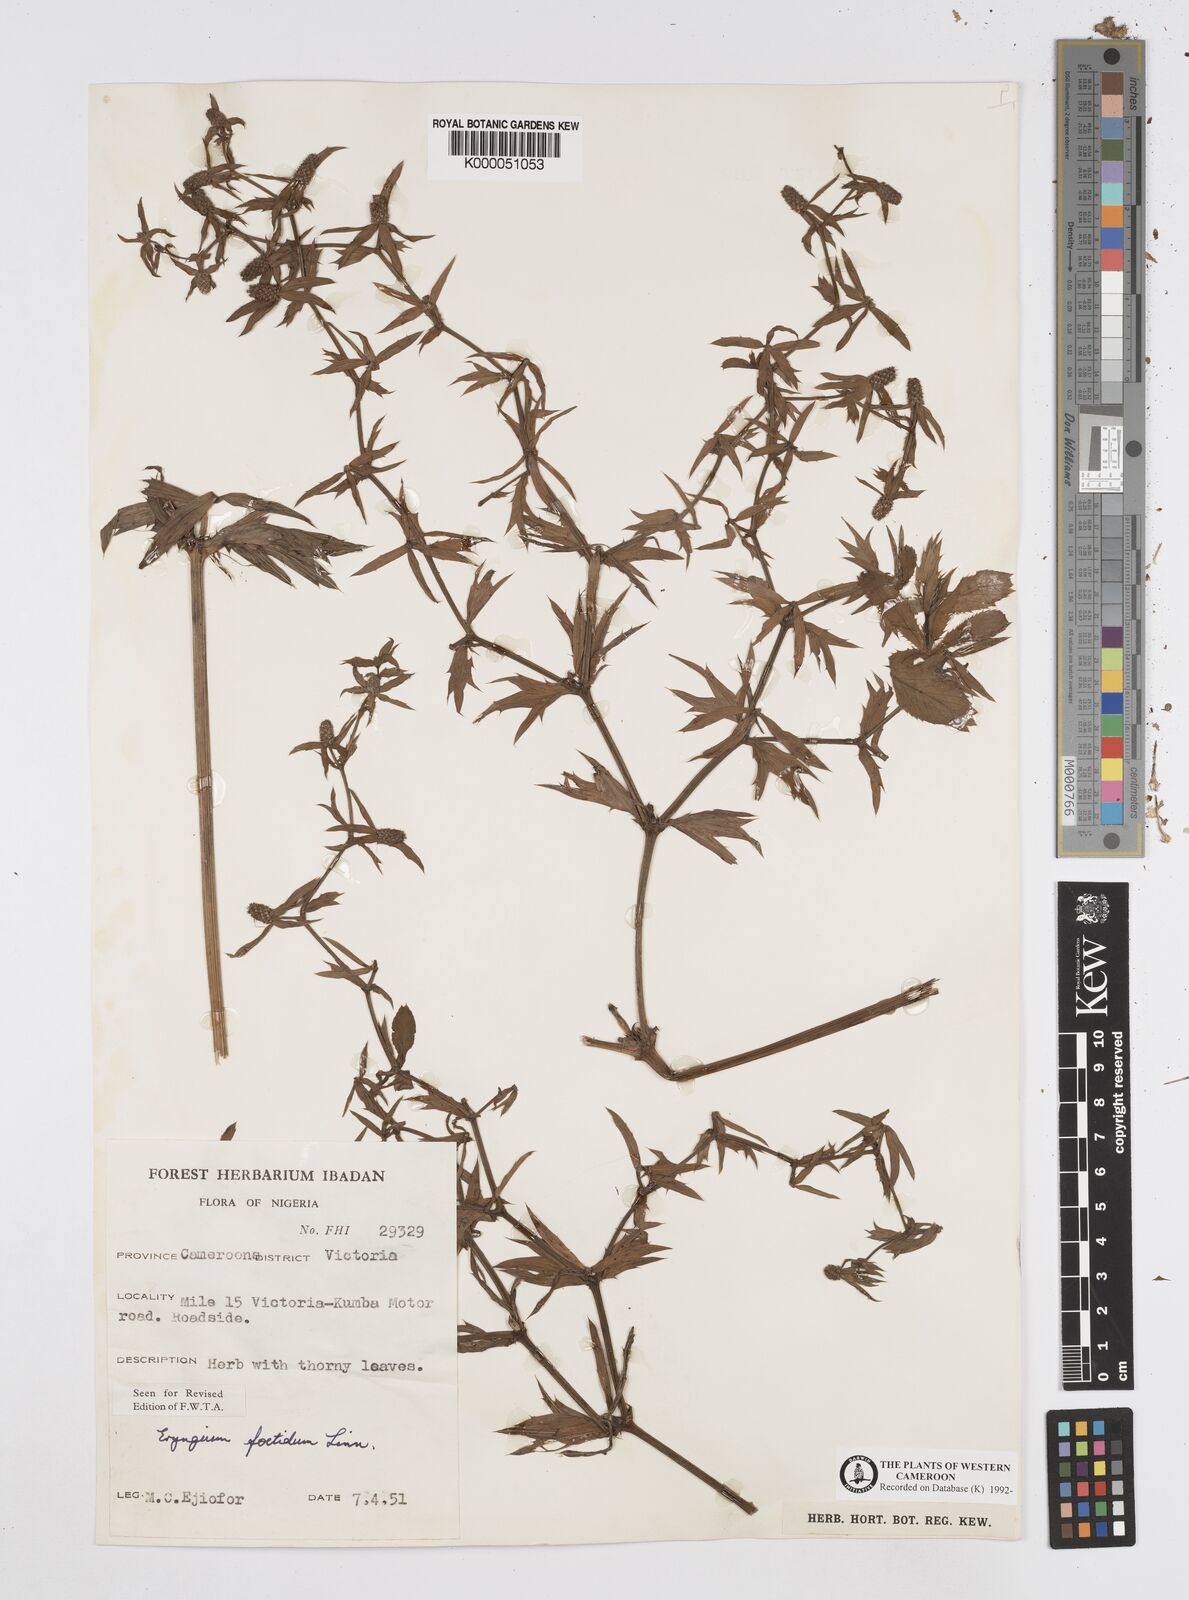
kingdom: Plantae
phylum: Tracheophyta
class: Magnoliopsida
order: Apiales
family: Apiaceae
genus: Eryngium
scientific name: Eryngium foetidum
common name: Fitweed
